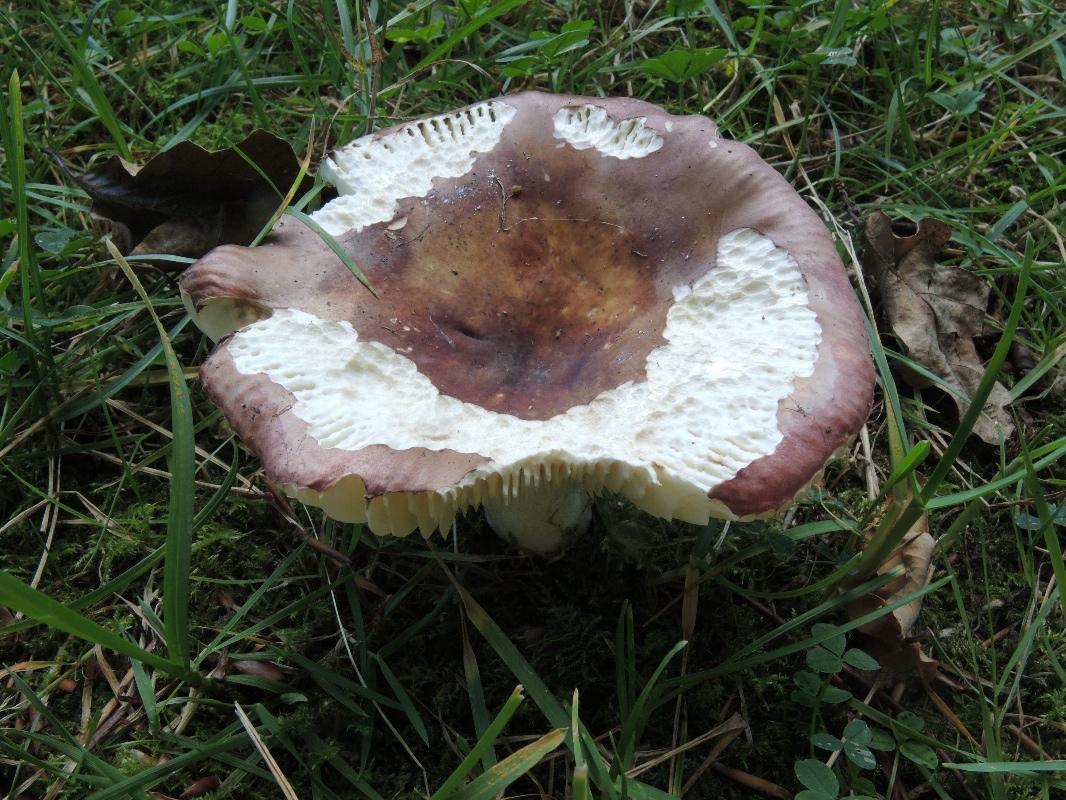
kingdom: Fungi
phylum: Basidiomycota
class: Agaricomycetes
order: Russulales
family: Russulaceae
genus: Russula
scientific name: Russula graveolens
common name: bugtet skørhat
